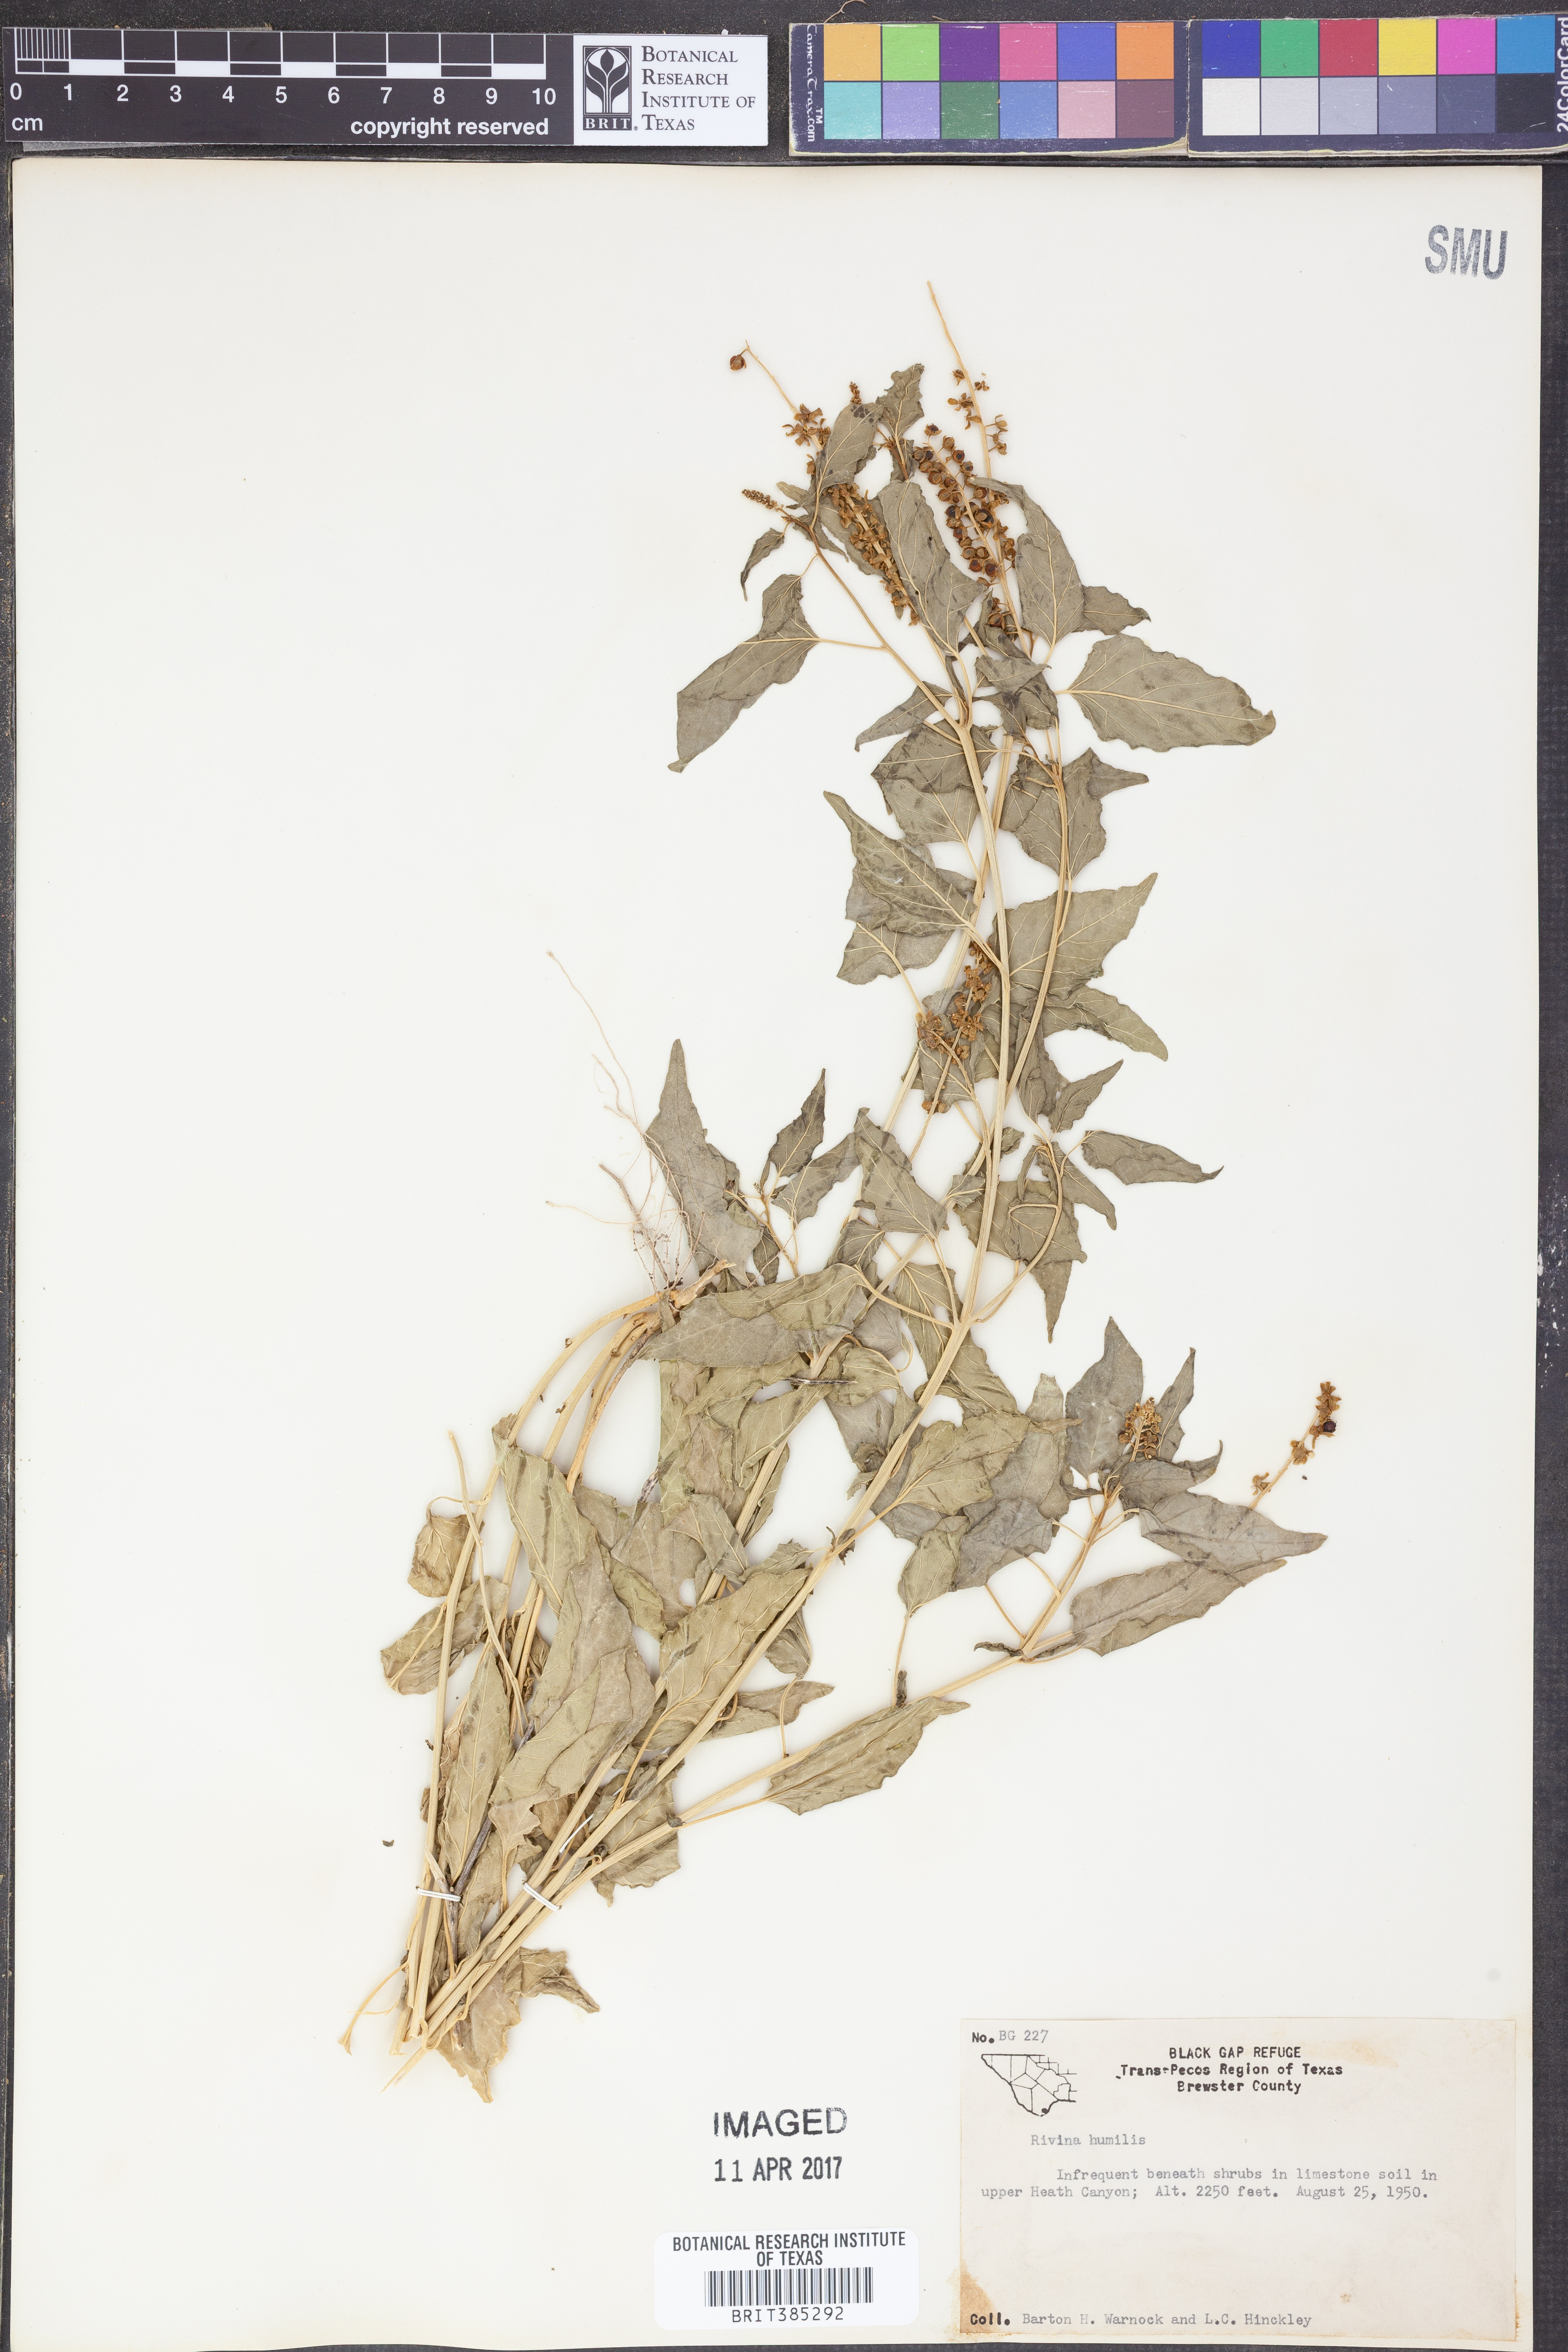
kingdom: Plantae
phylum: Tracheophyta
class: Magnoliopsida
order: Caryophyllales
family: Phytolaccaceae
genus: Rivina
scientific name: Rivina humilis
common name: Rougeplant
